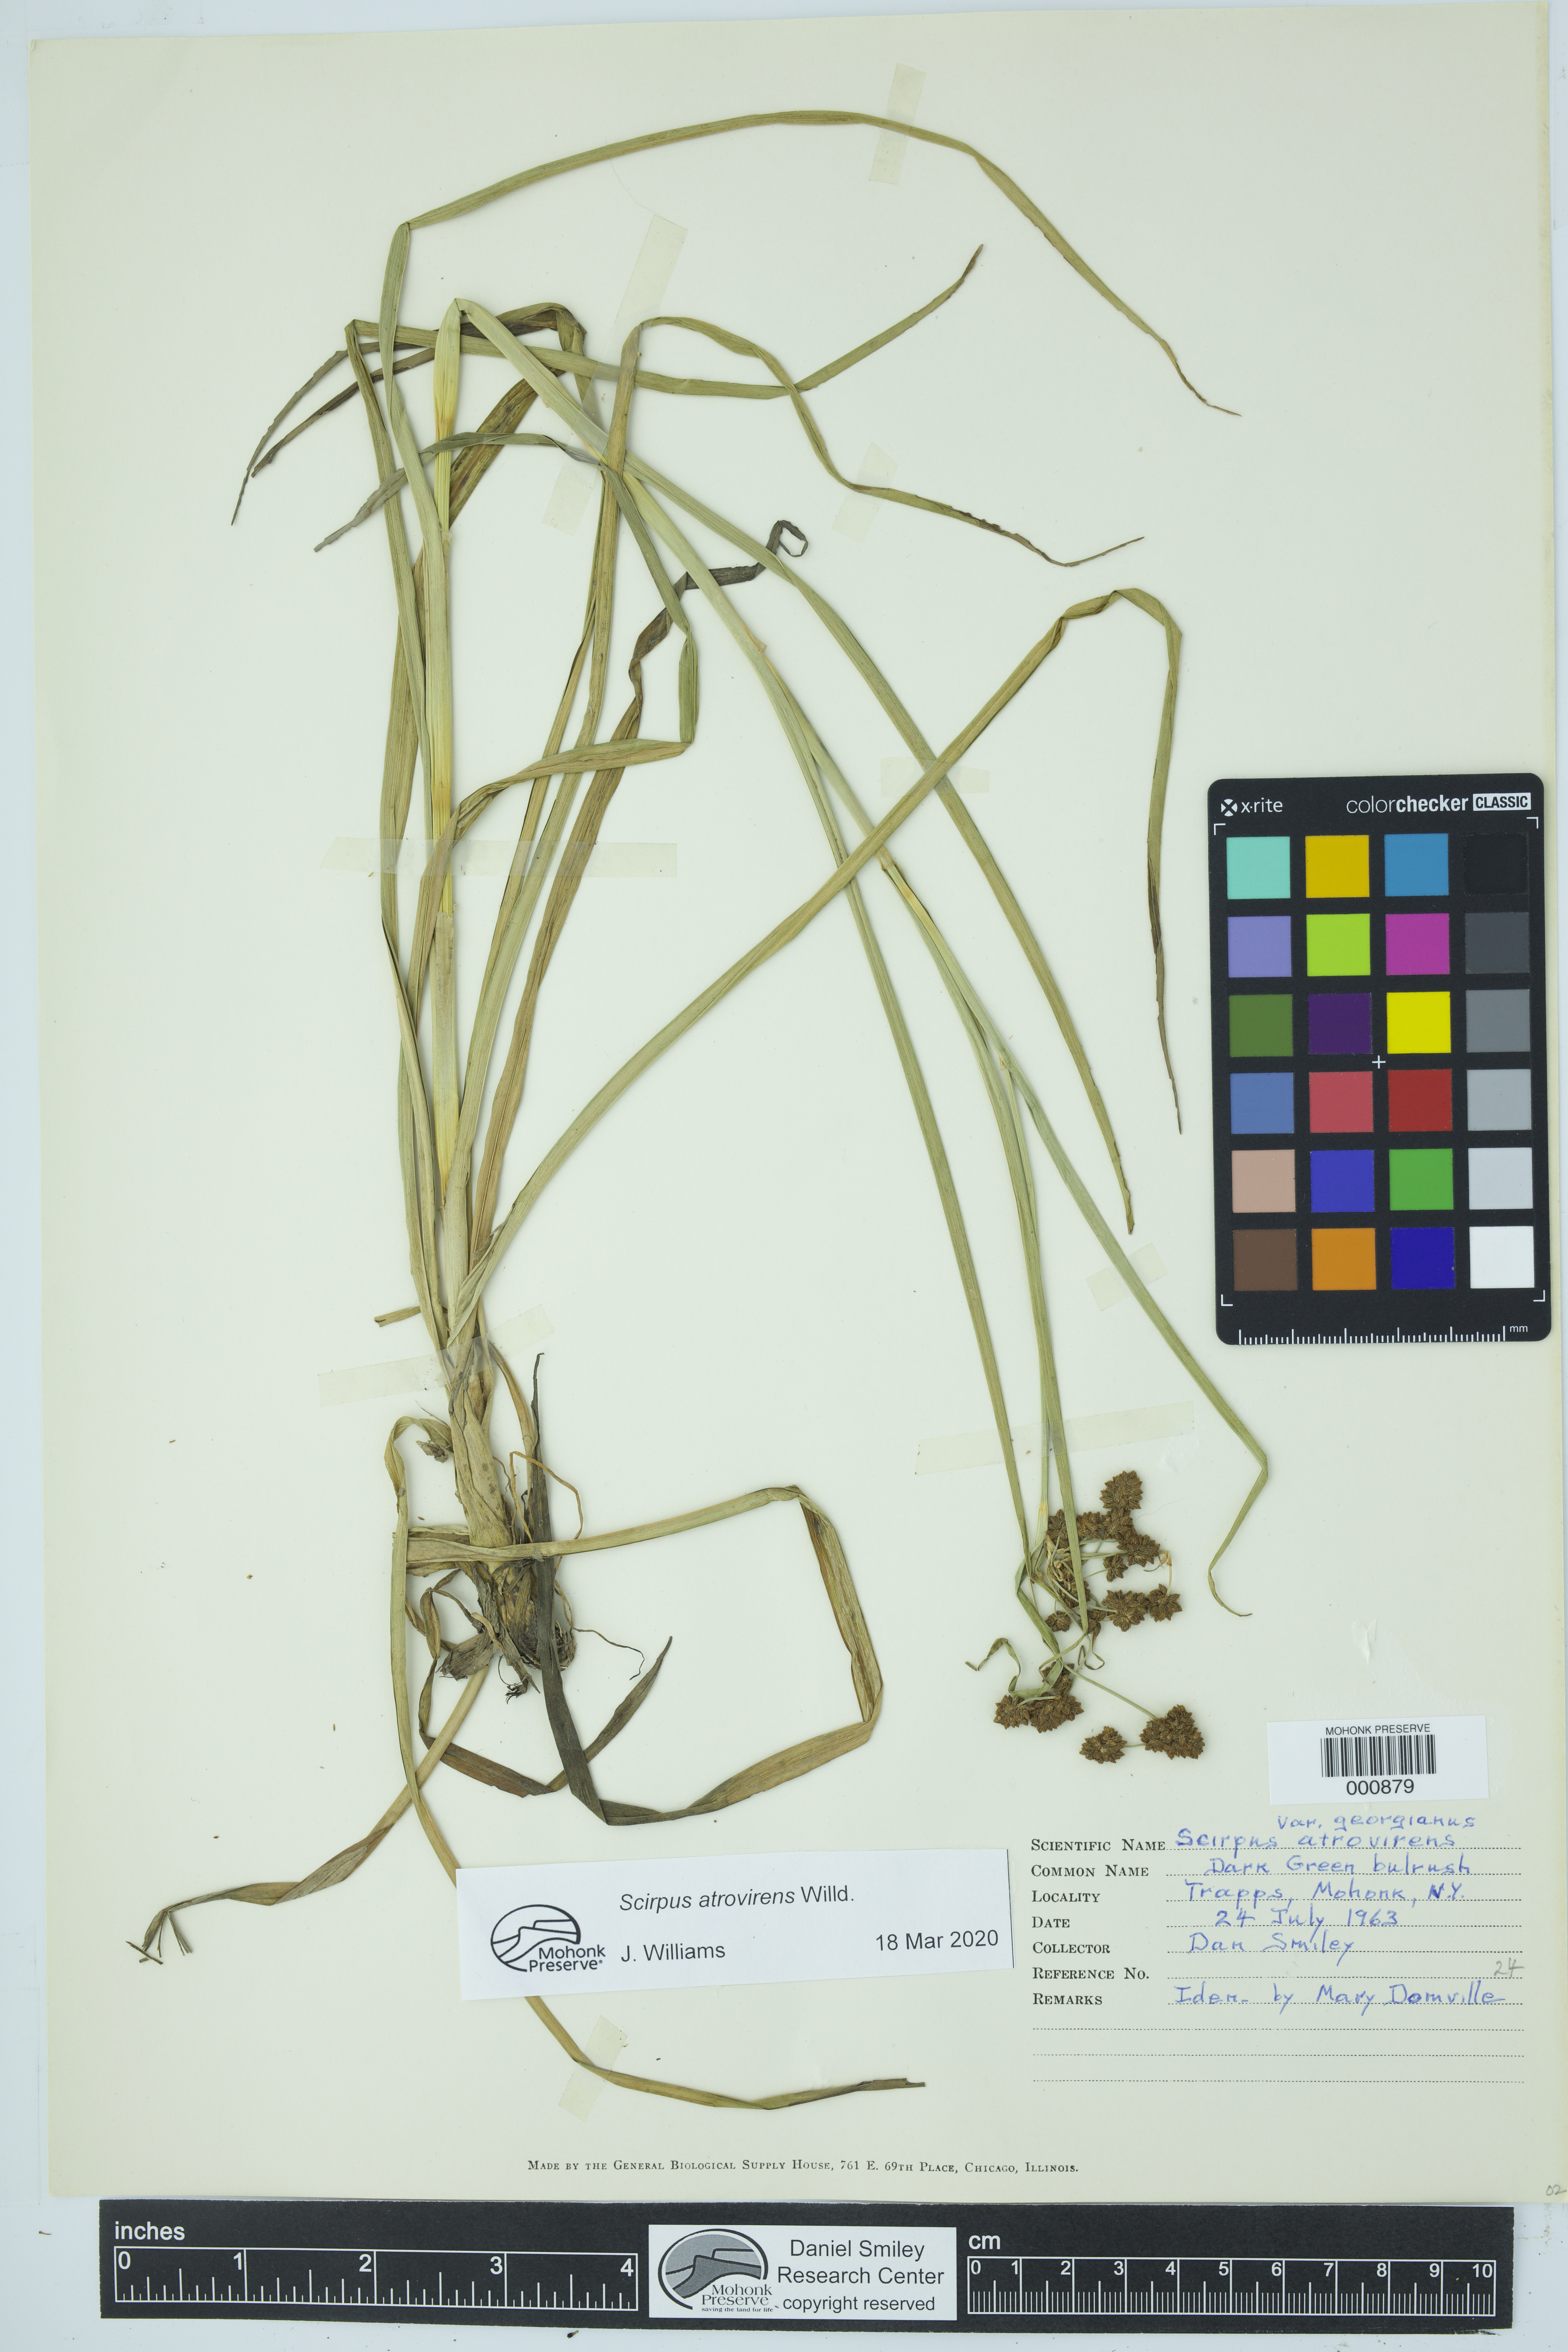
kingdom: Plantae
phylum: Tracheophyta
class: Liliopsida
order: Poales
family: Cyperaceae
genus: Scirpus
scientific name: Scirpus georgianus
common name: Bristleless dark-green bulrush
